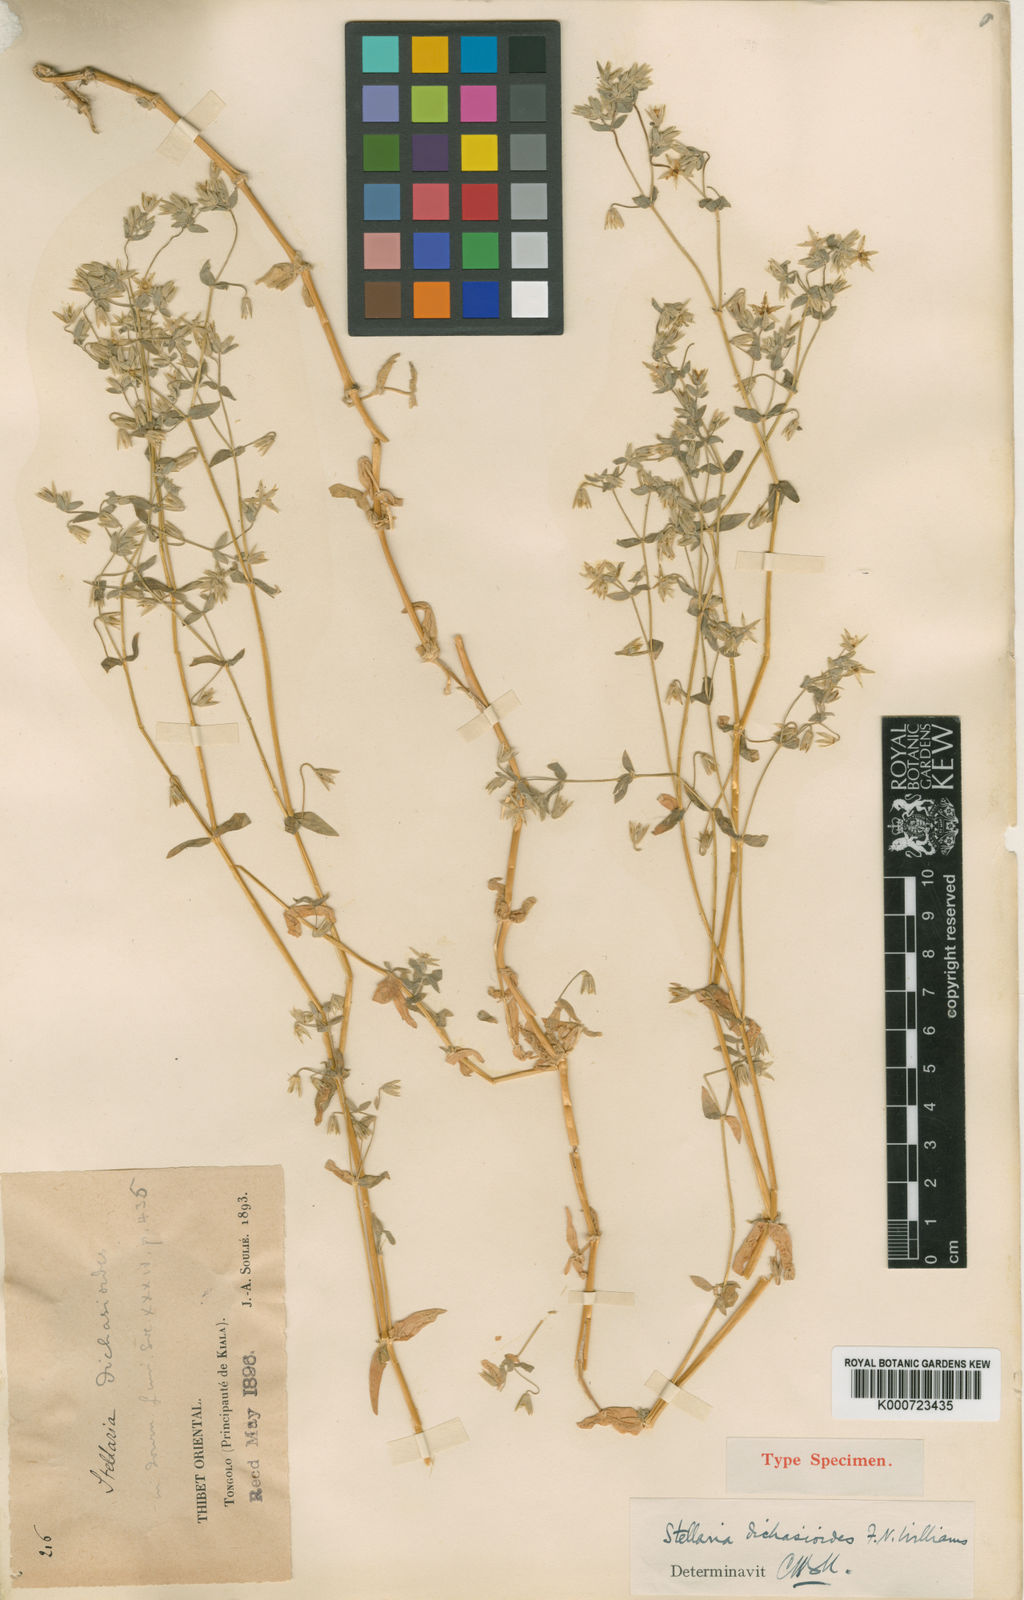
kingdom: Plantae
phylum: Tracheophyta
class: Magnoliopsida
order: Caryophyllales
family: Caryophyllaceae
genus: Stellaria
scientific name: Stellaria infracta
